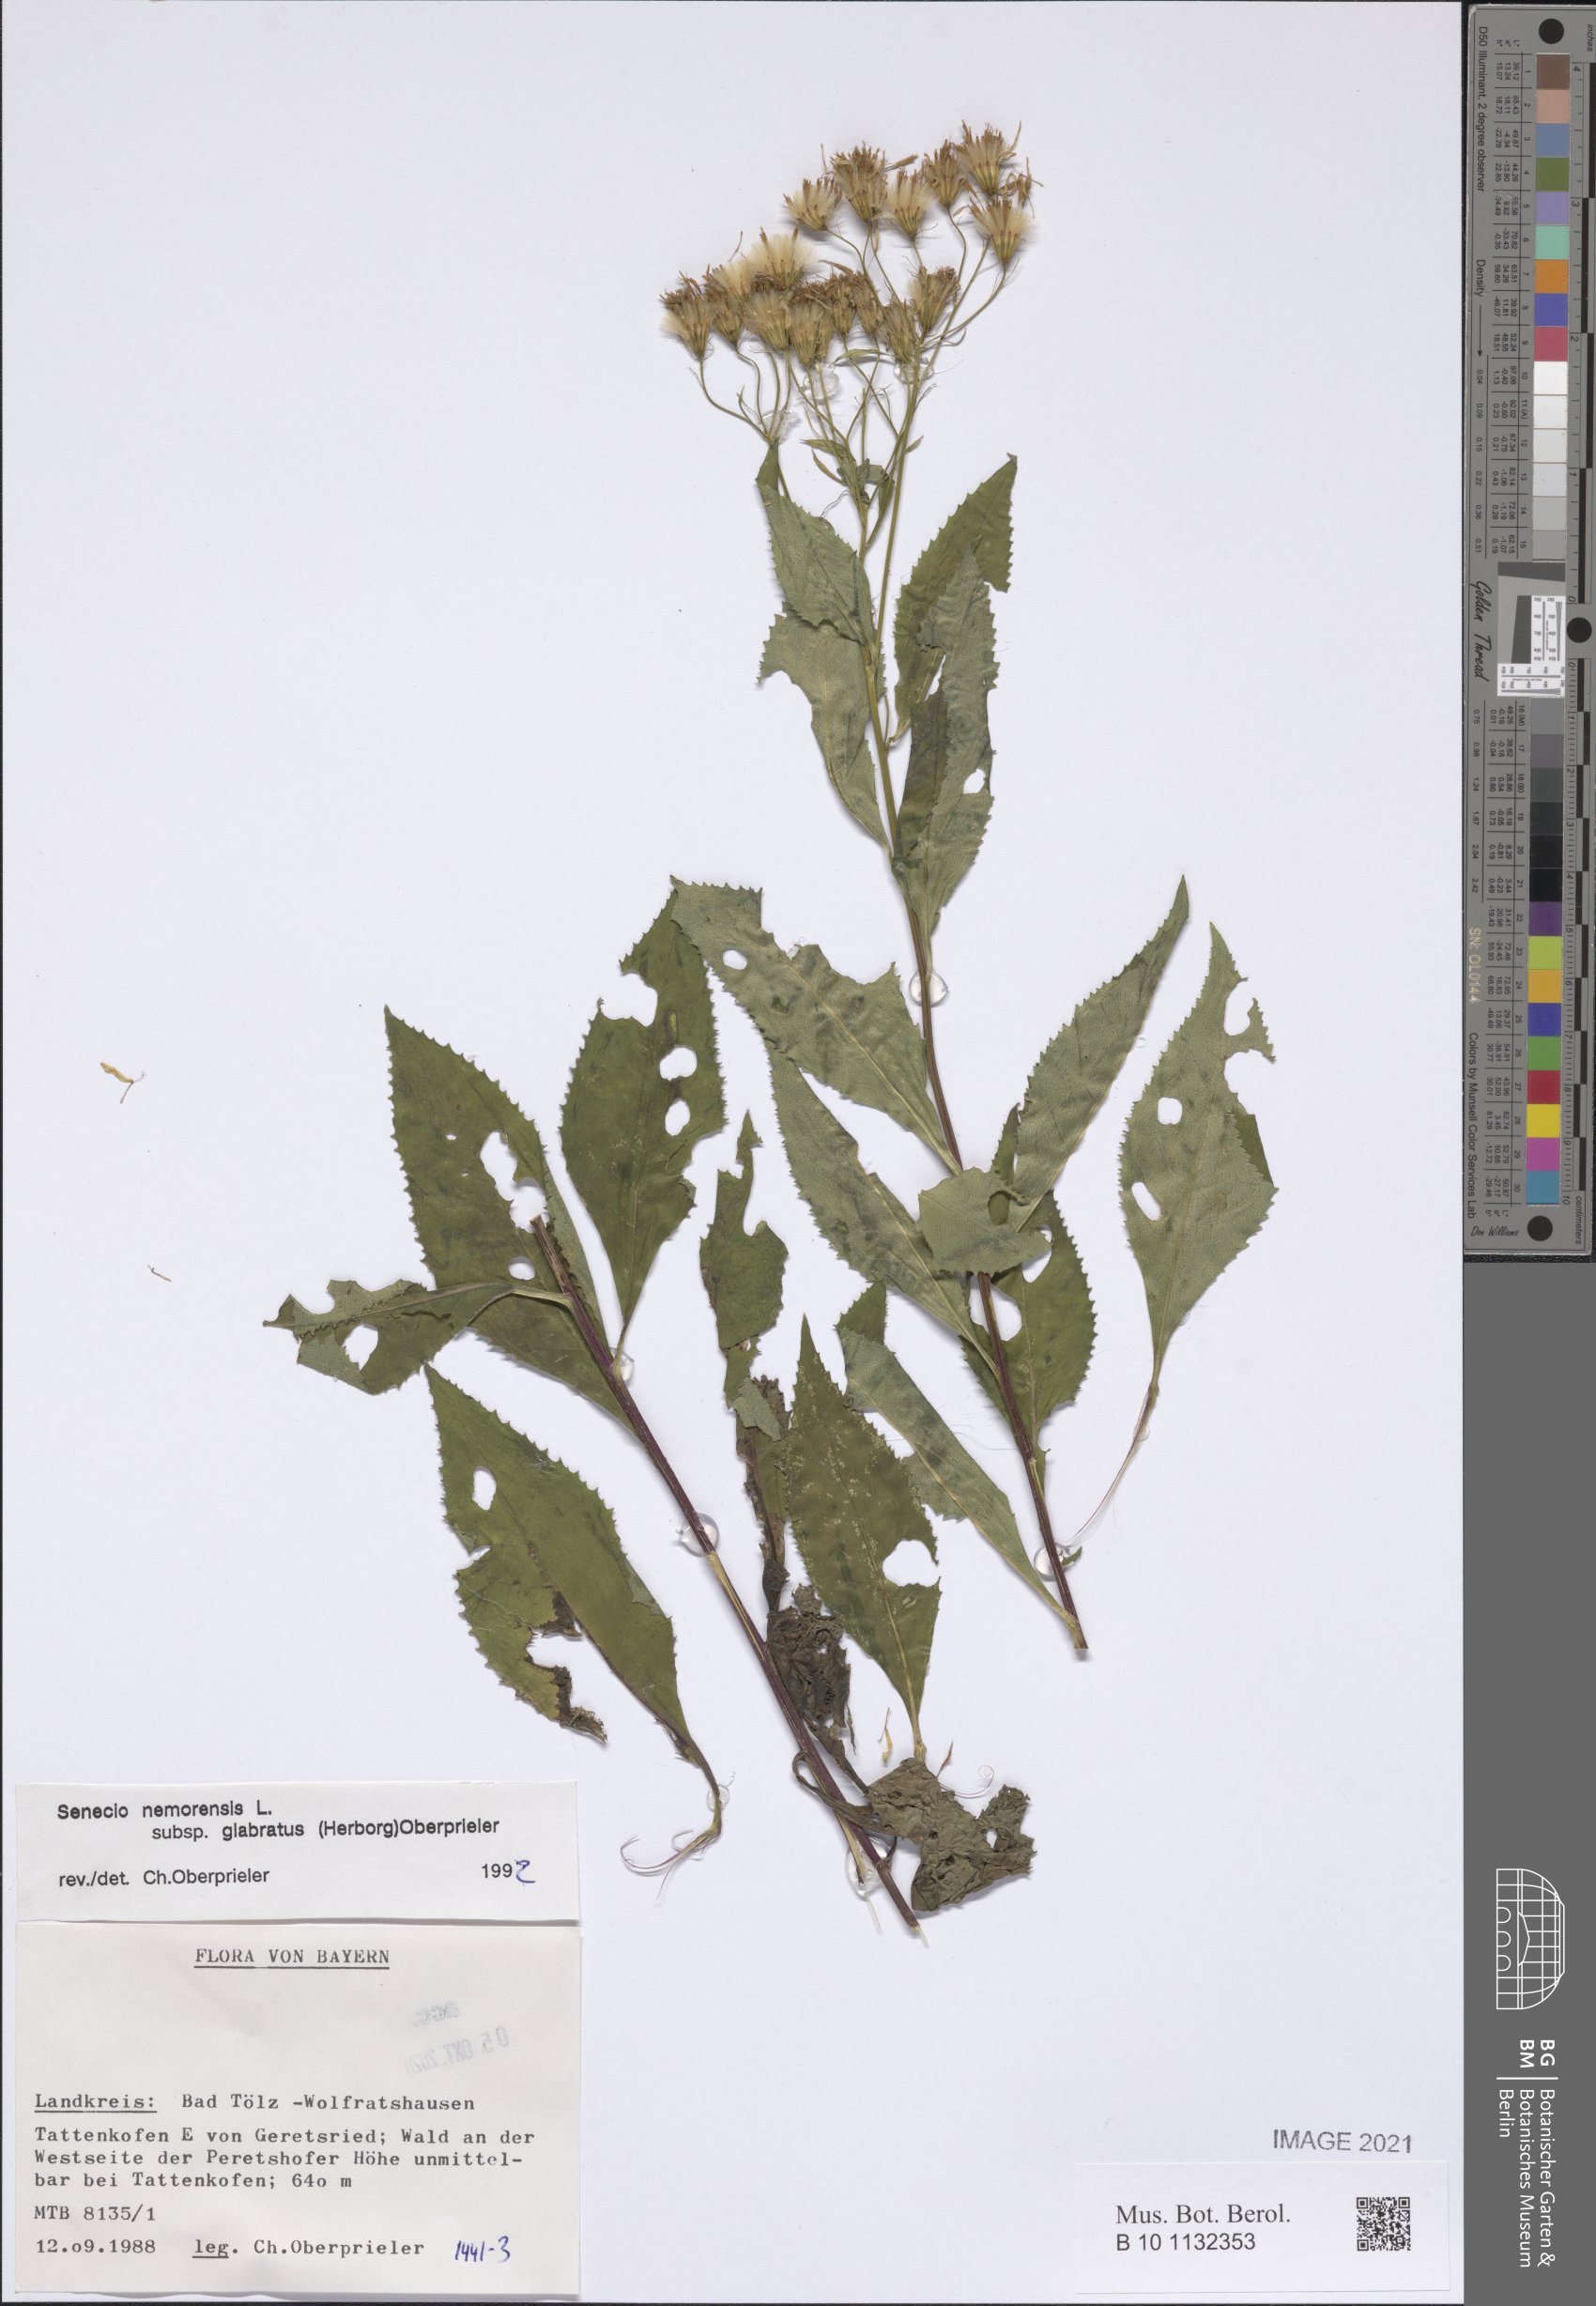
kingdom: Plantae
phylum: Tracheophyta
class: Magnoliopsida
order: Asterales
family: Asteraceae
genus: Senecio
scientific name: Senecio germanicus
